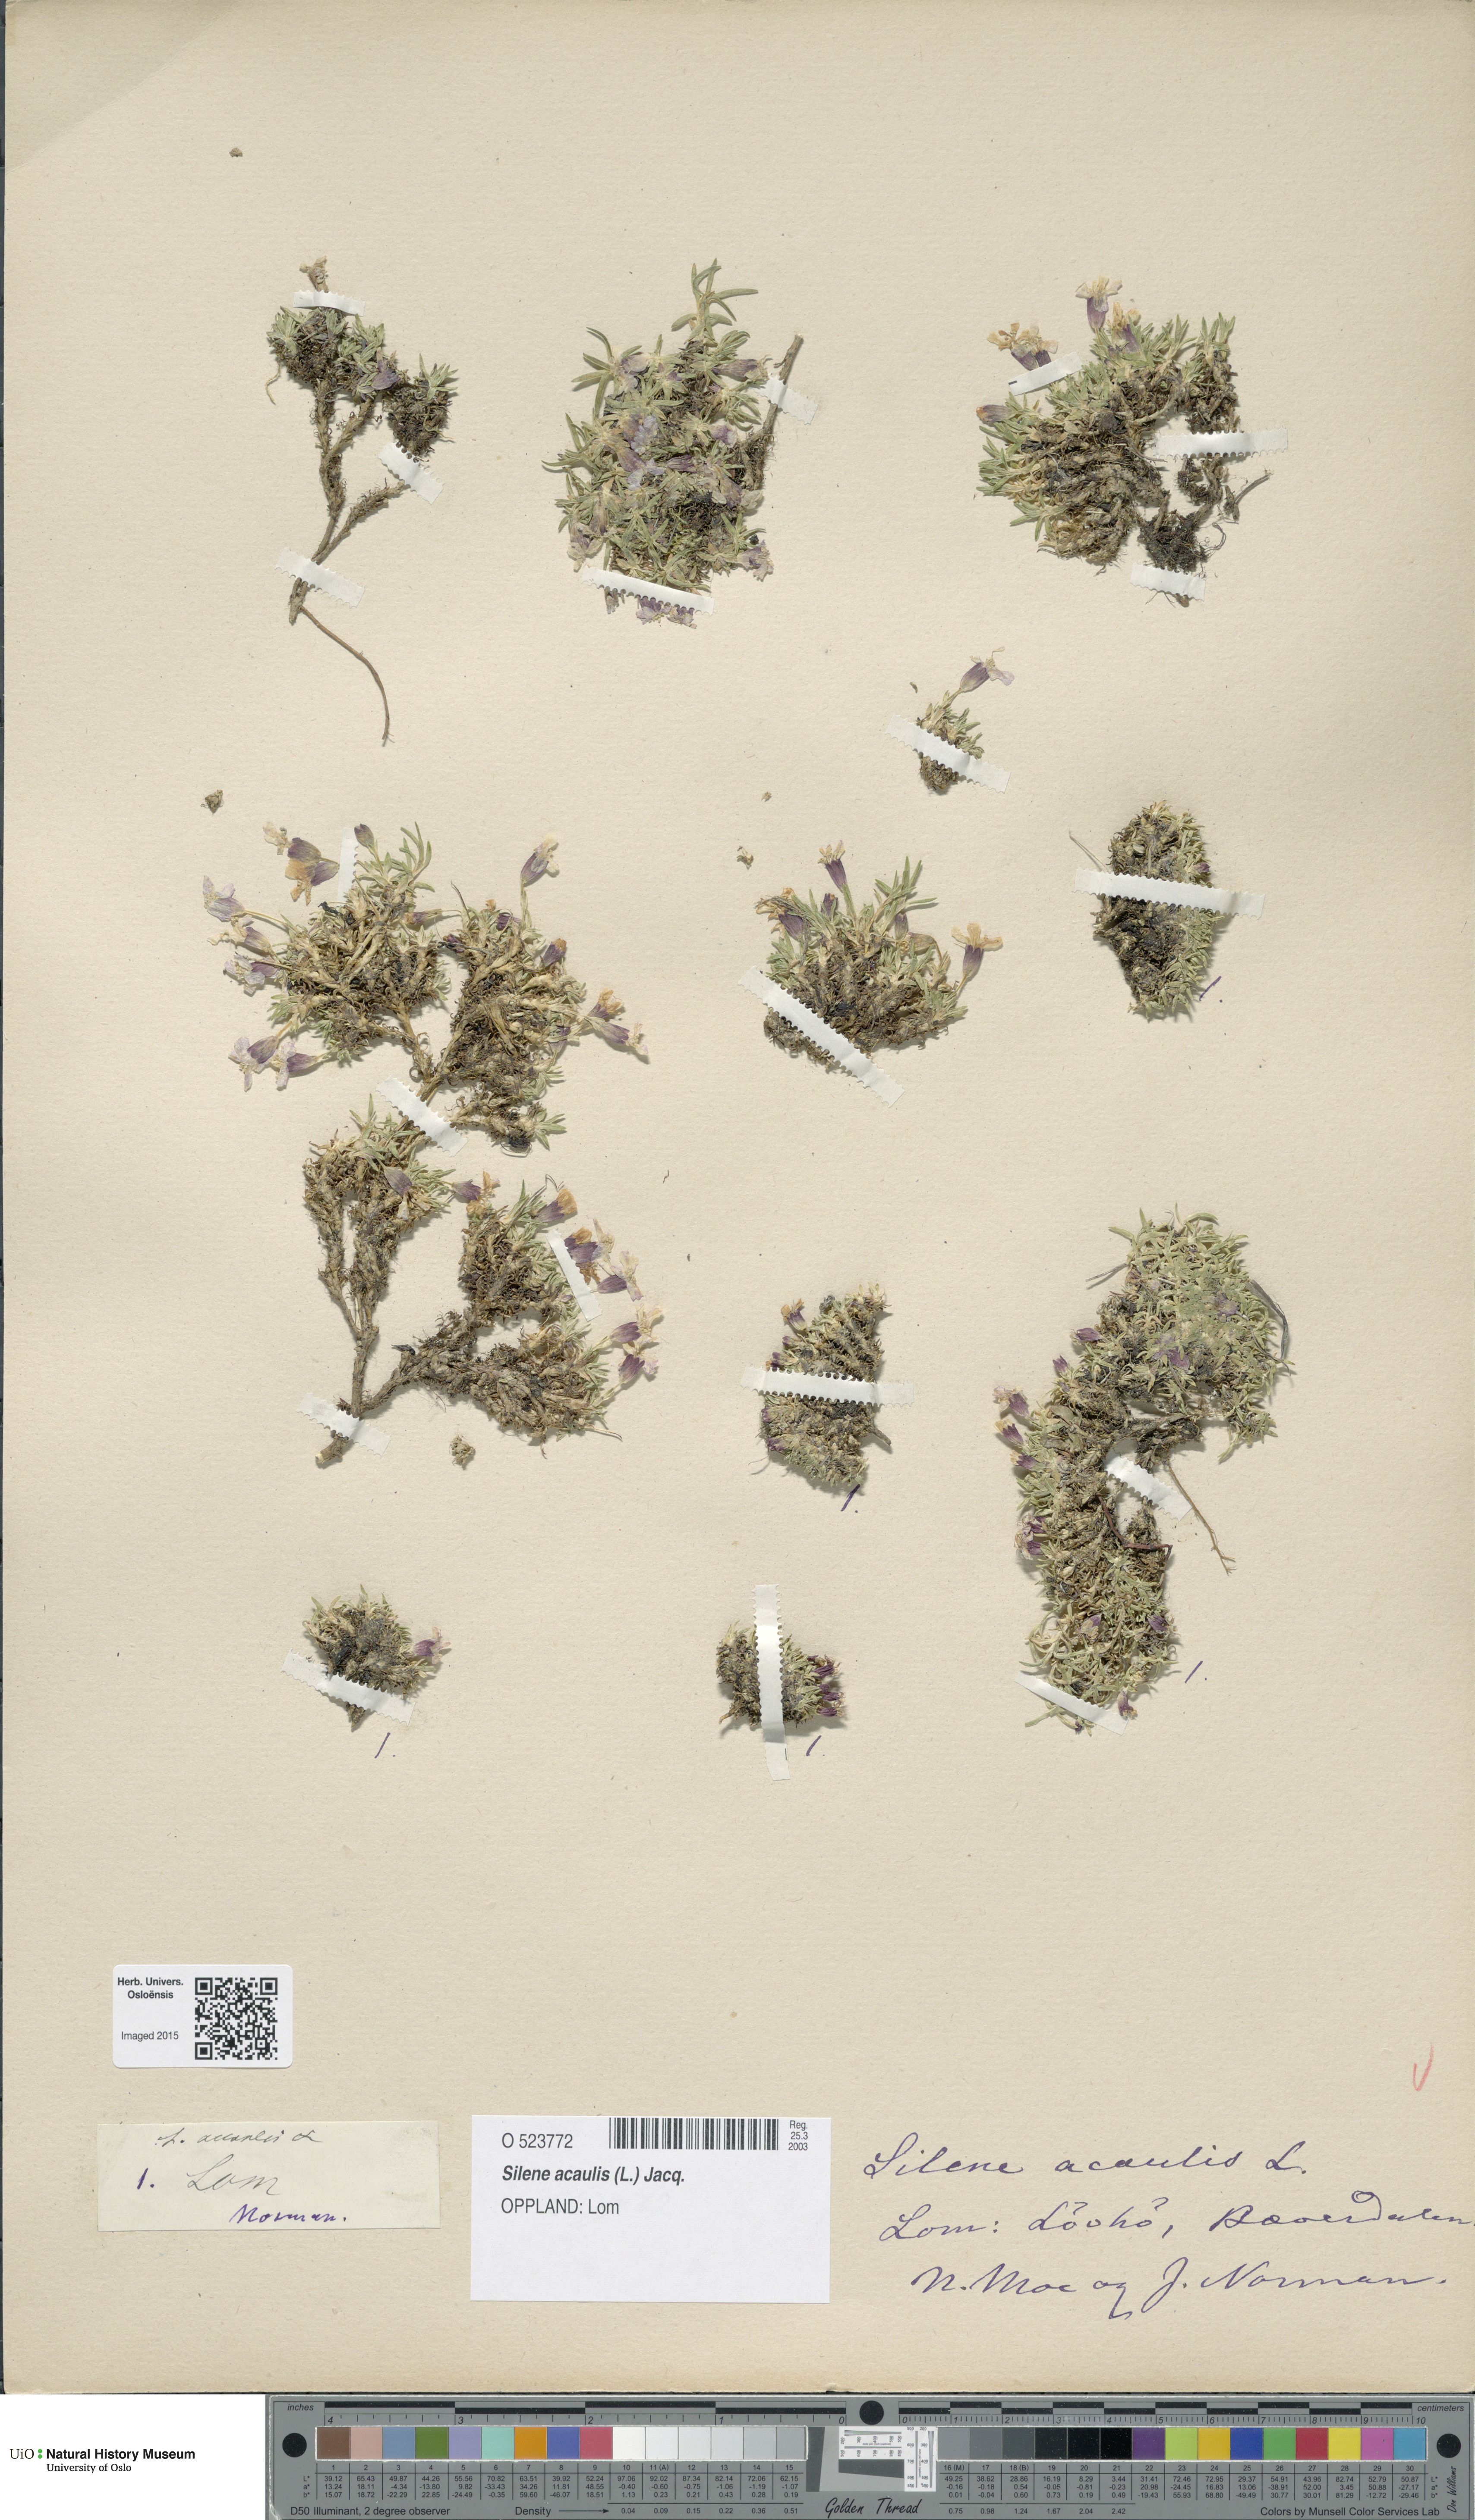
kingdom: Plantae
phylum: Tracheophyta
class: Magnoliopsida
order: Caryophyllales
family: Caryophyllaceae
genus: Silene
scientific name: Silene acaulis
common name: Moss campion
